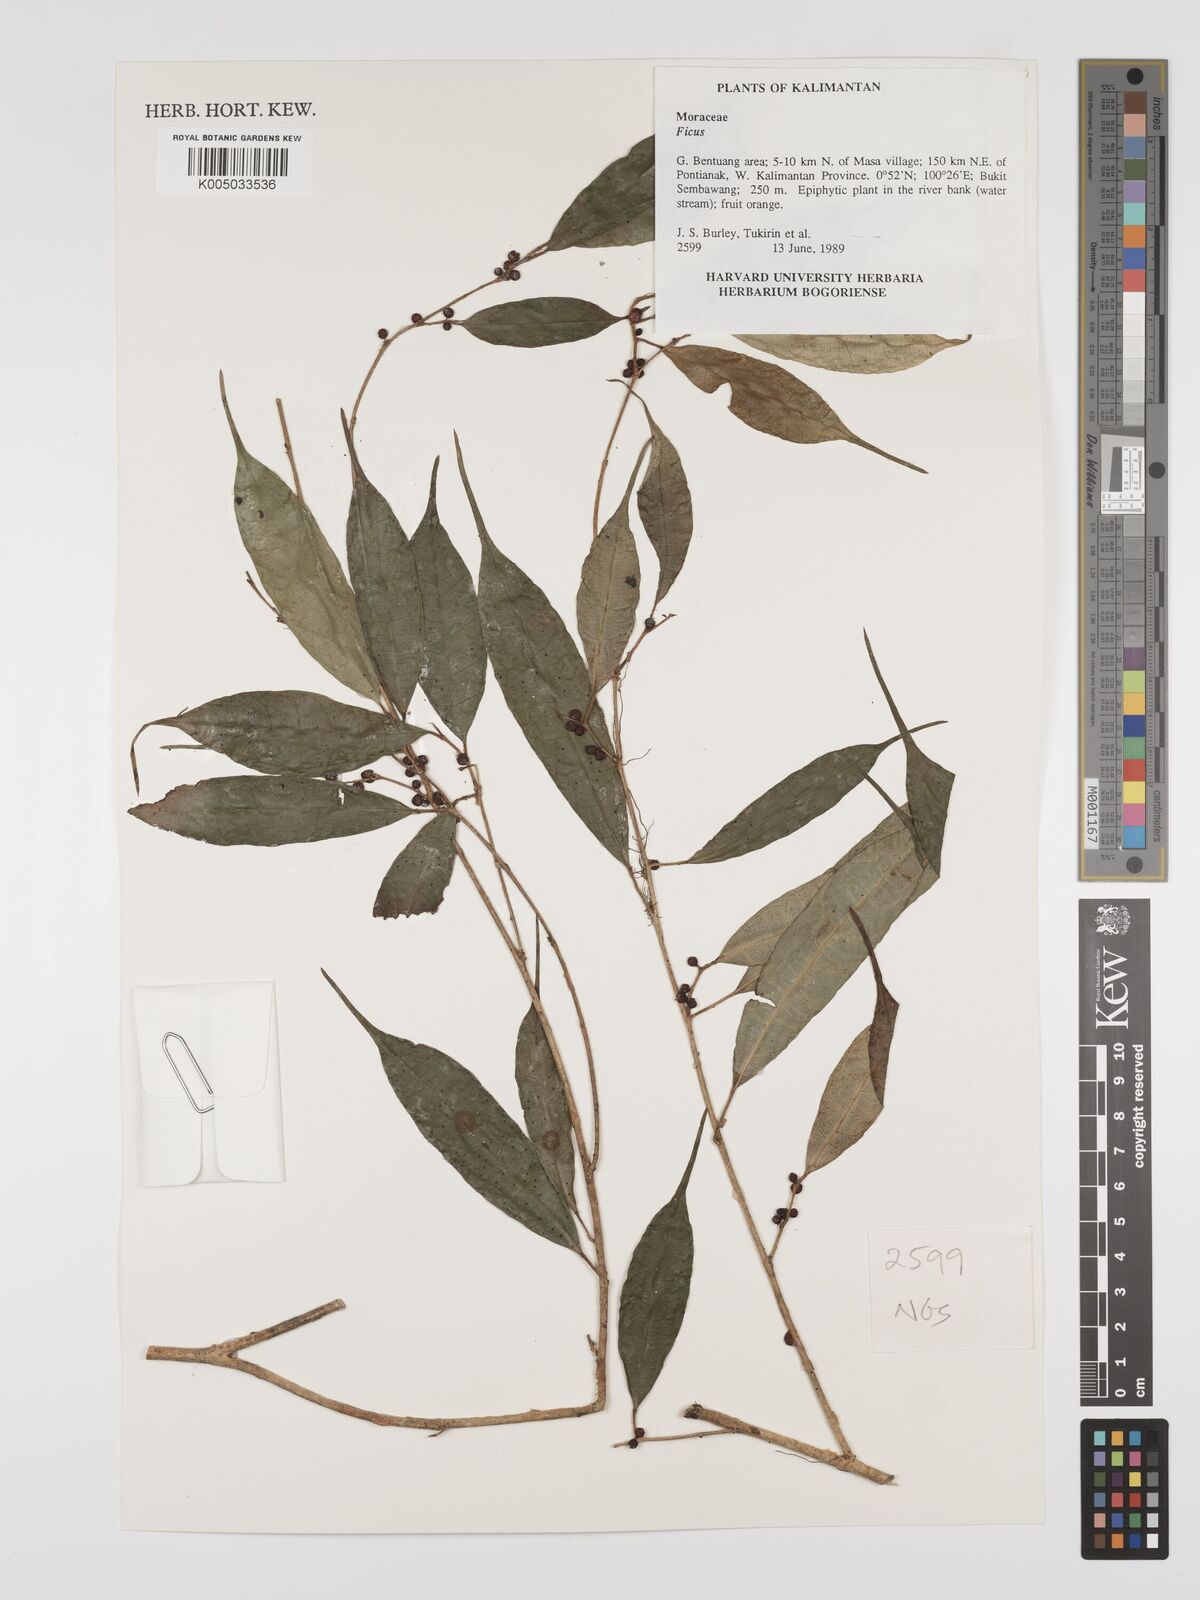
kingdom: Plantae
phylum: Tracheophyta
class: Magnoliopsida
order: Rosales
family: Moraceae
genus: Ficus
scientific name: Ficus
